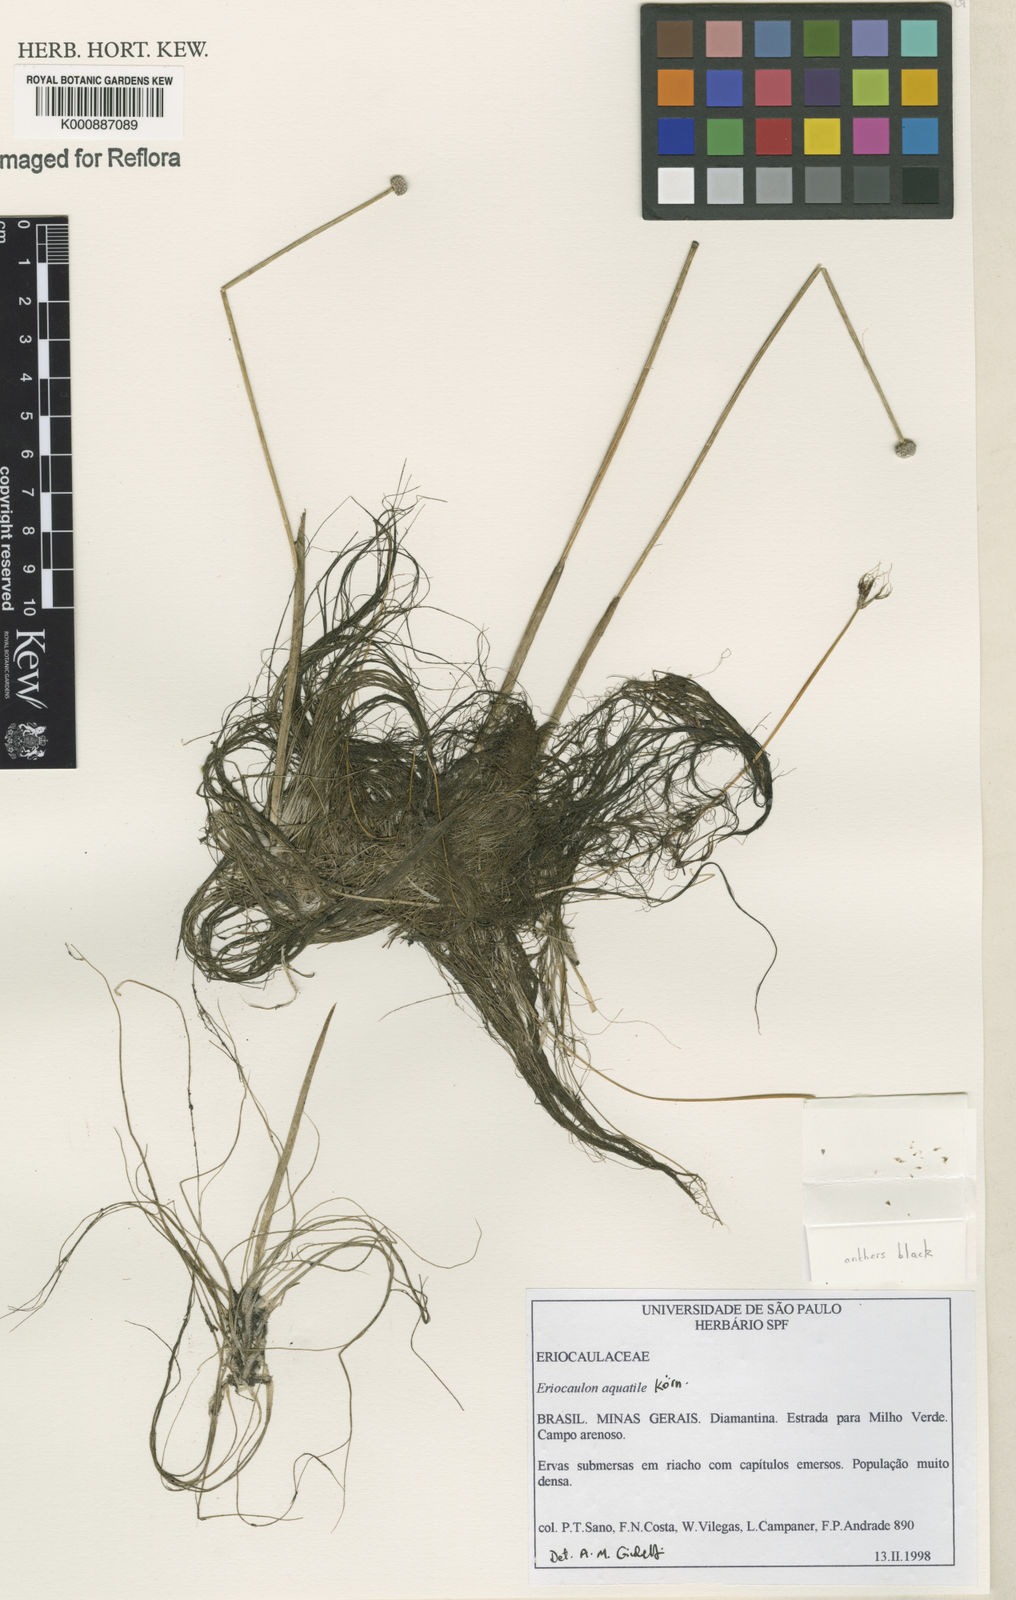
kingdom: Plantae
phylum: Tracheophyta
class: Liliopsida
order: Poales
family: Eriocaulaceae
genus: Eriocaulon
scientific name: Eriocaulon
